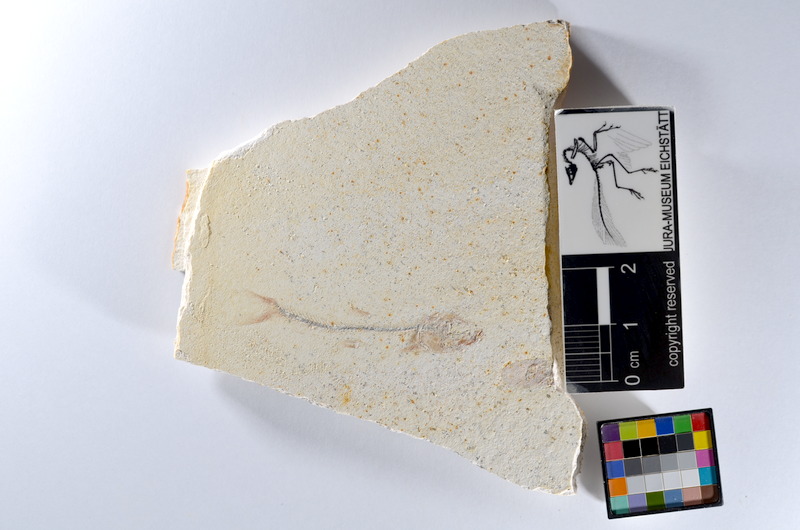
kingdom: Animalia
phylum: Chordata
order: Salmoniformes
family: Orthogonikleithridae
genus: Orthogonikleithrus
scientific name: Orthogonikleithrus hoelli
